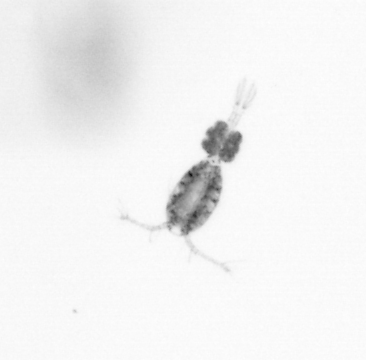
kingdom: Animalia
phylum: Arthropoda
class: Copepoda
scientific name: Copepoda
